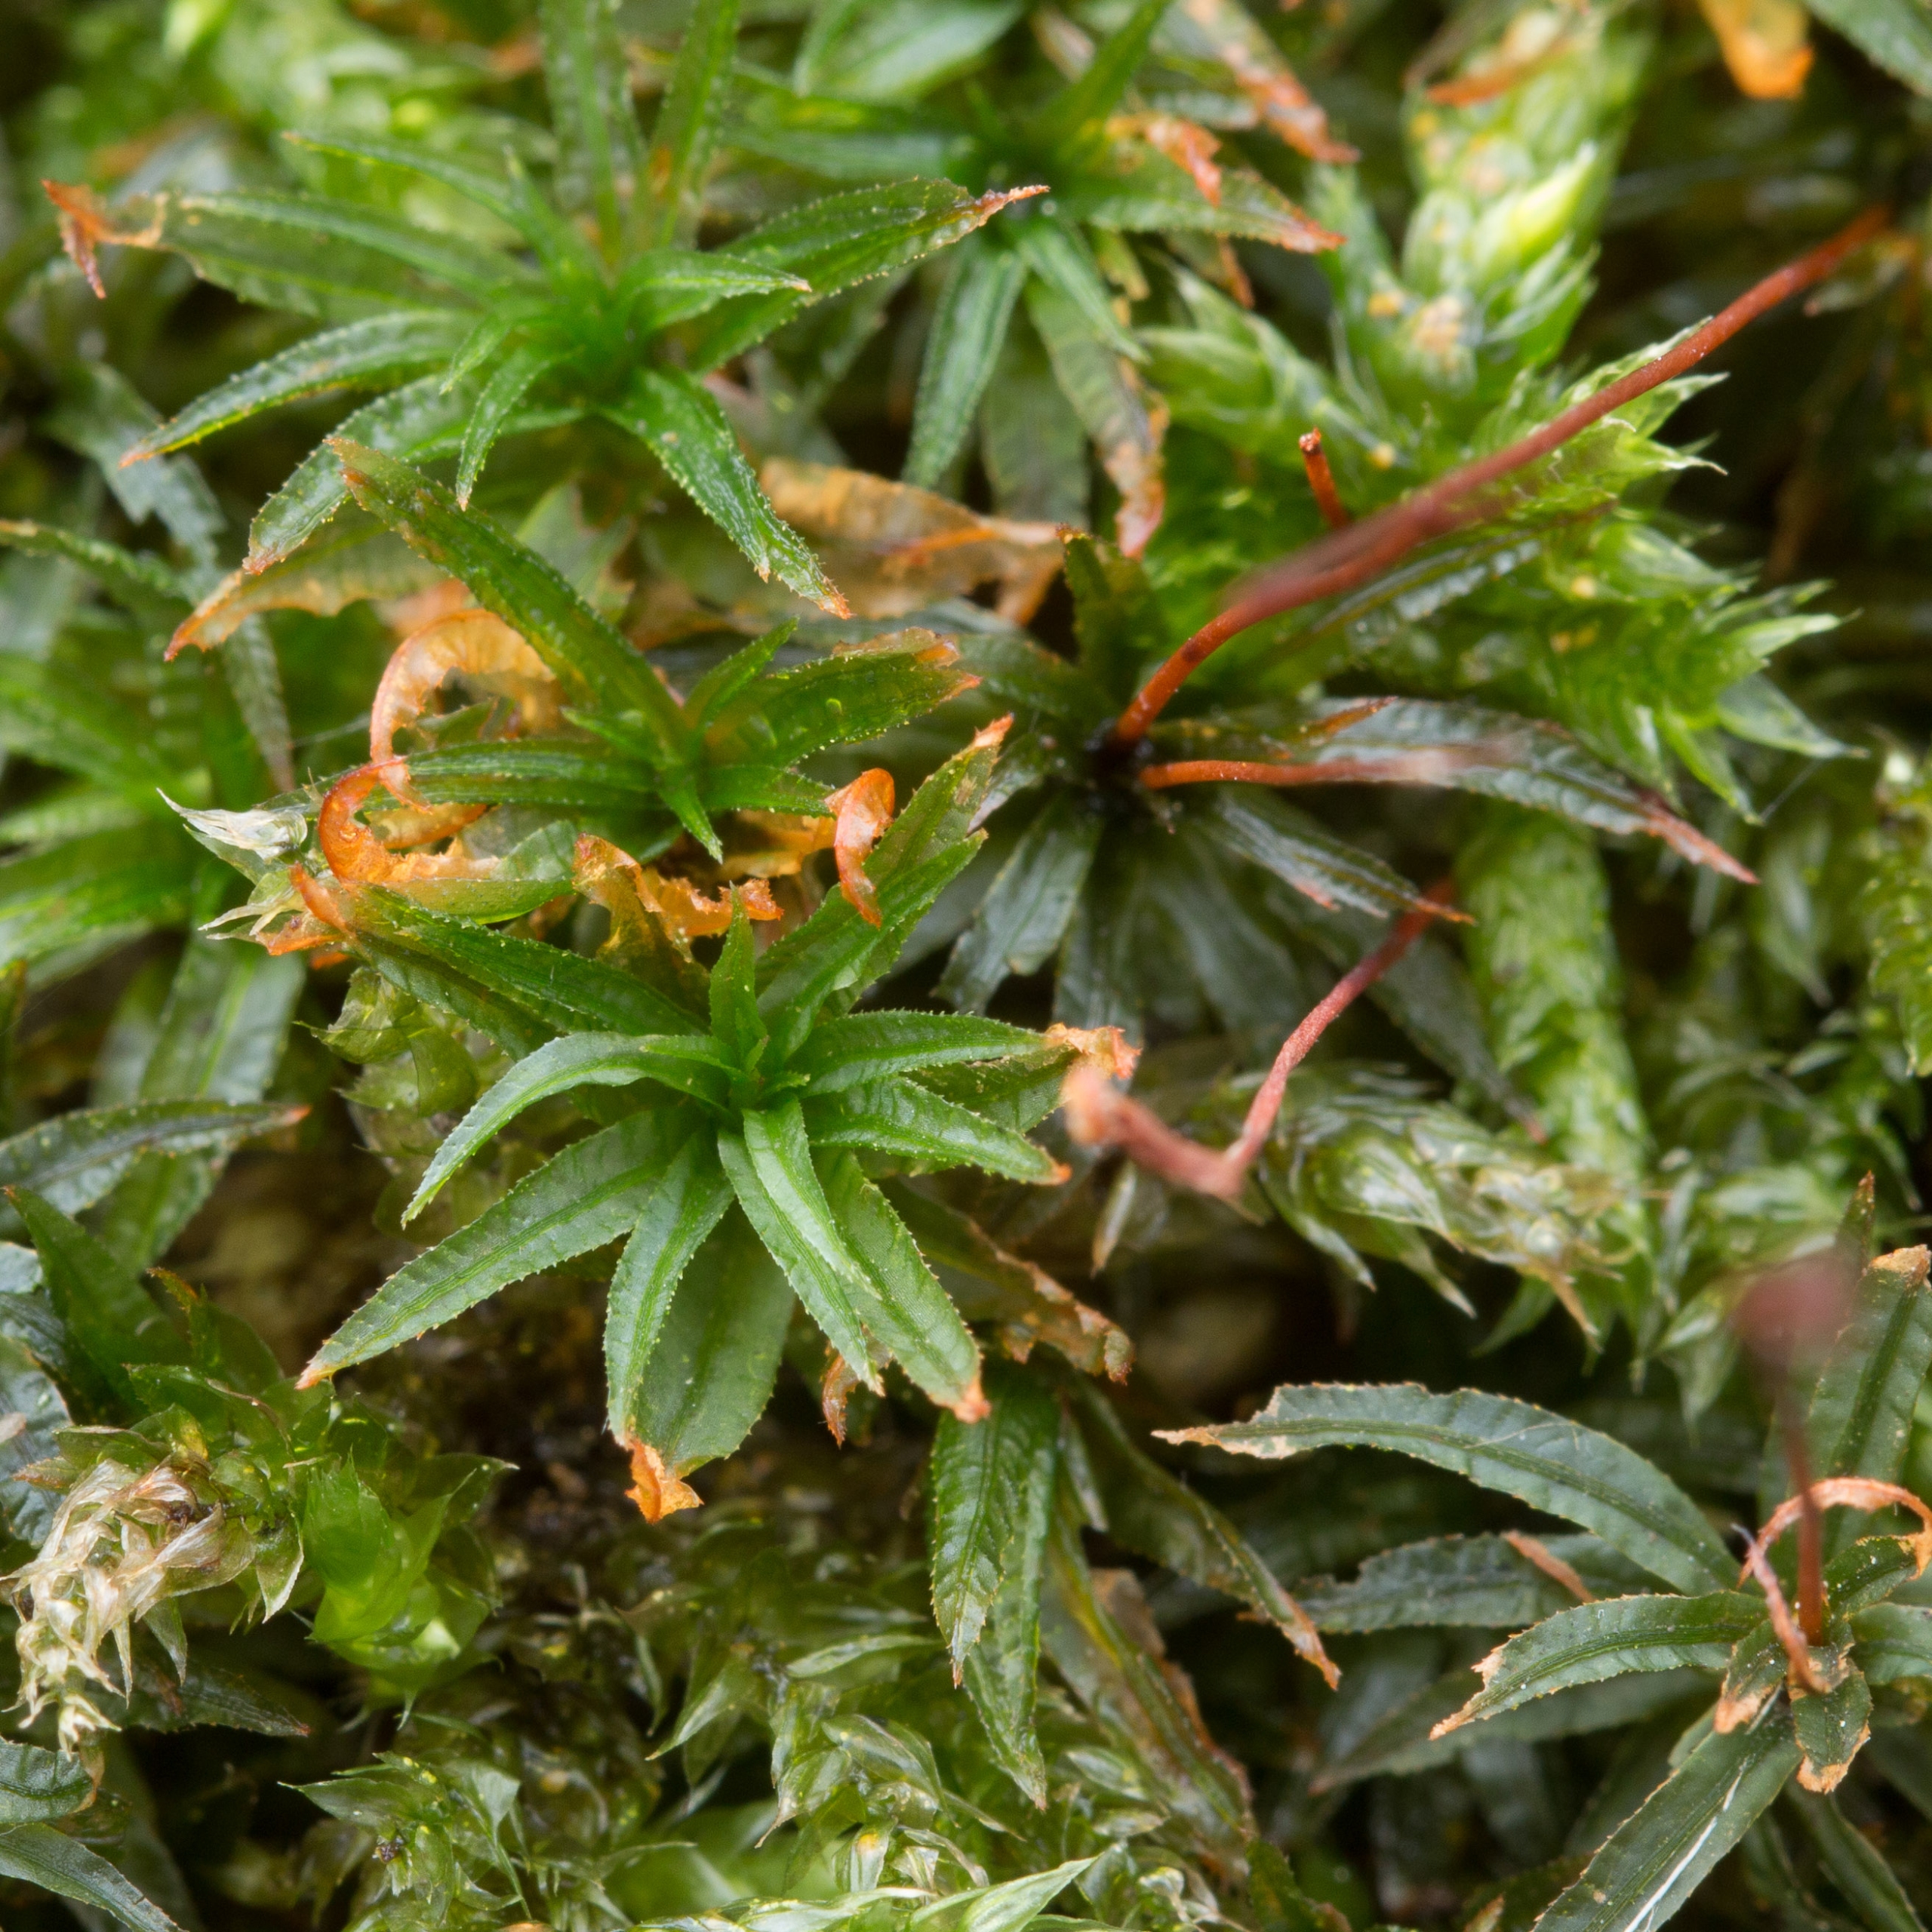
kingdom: Plantae
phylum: Bryophyta
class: Polytrichopsida
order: Polytrichales
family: Polytrichaceae
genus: Atrichum
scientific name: Atrichum undulatum
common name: Bølget katrinemos
